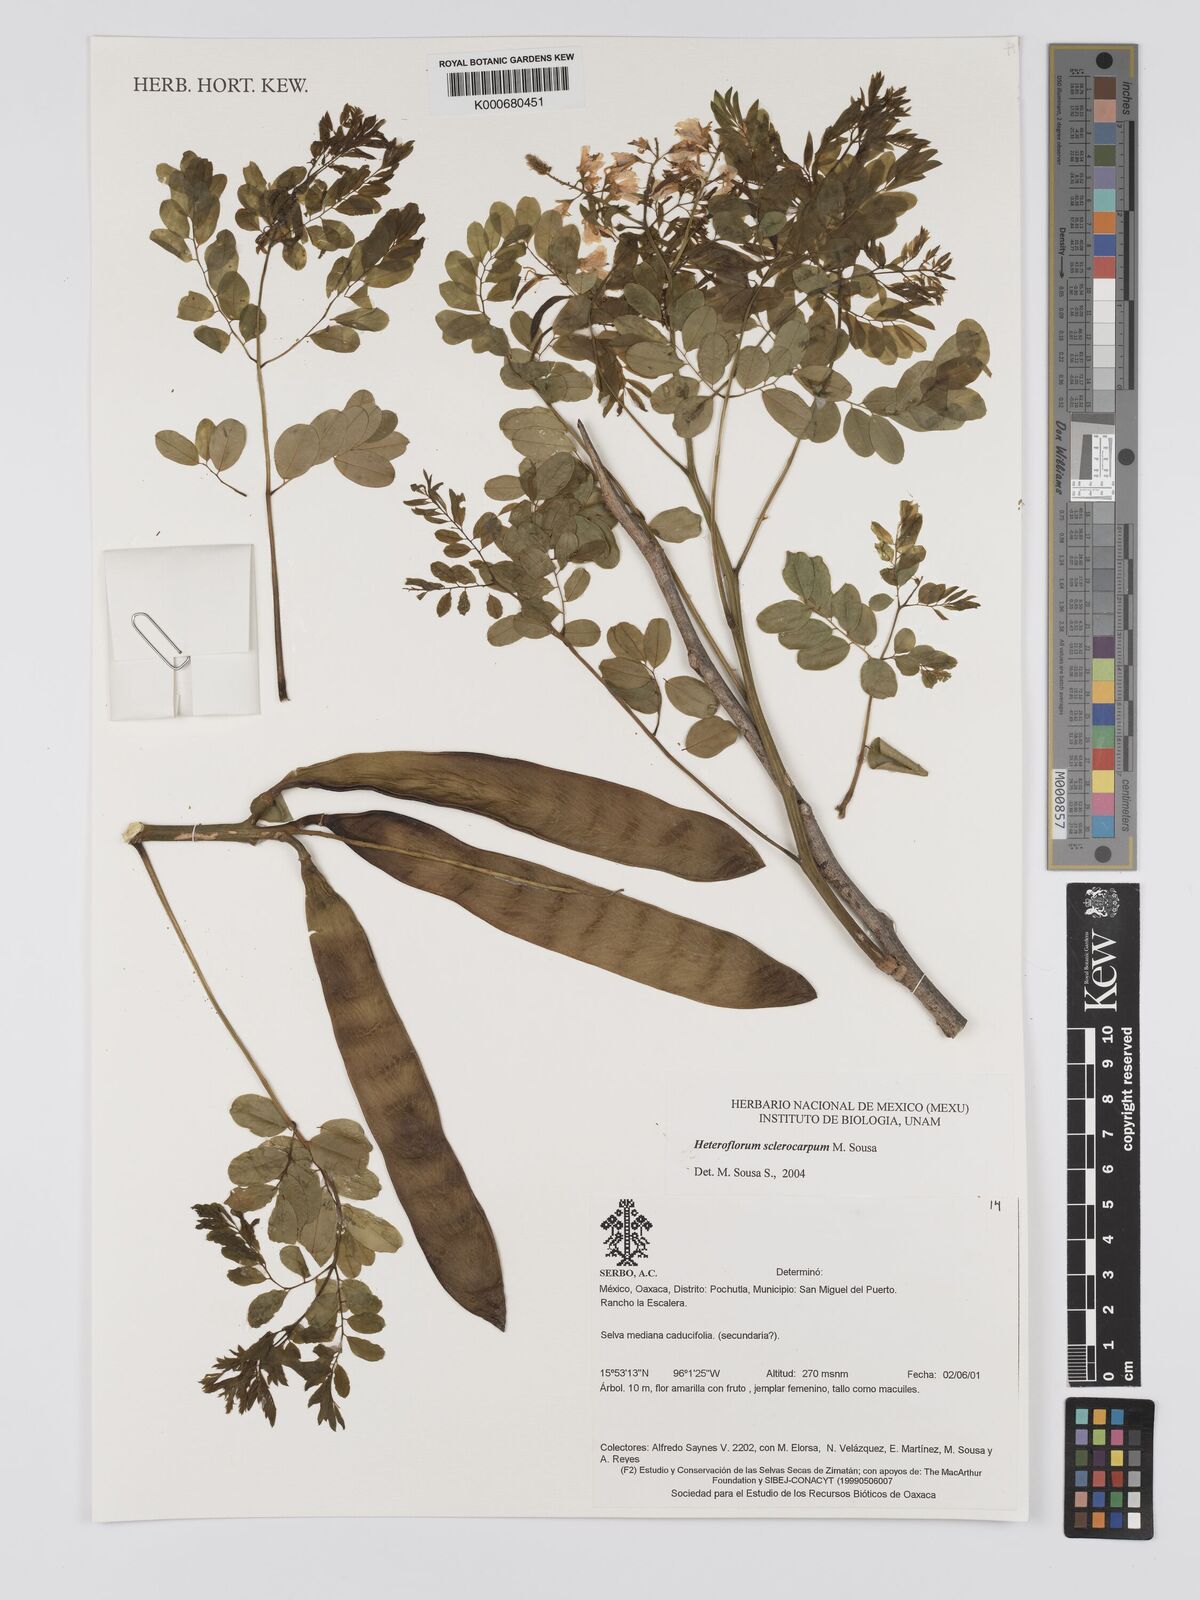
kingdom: Plantae
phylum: Tracheophyta
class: Magnoliopsida
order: Fabales
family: Fabaceae
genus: Heteroflorum
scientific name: Heteroflorum sclerocarpum
